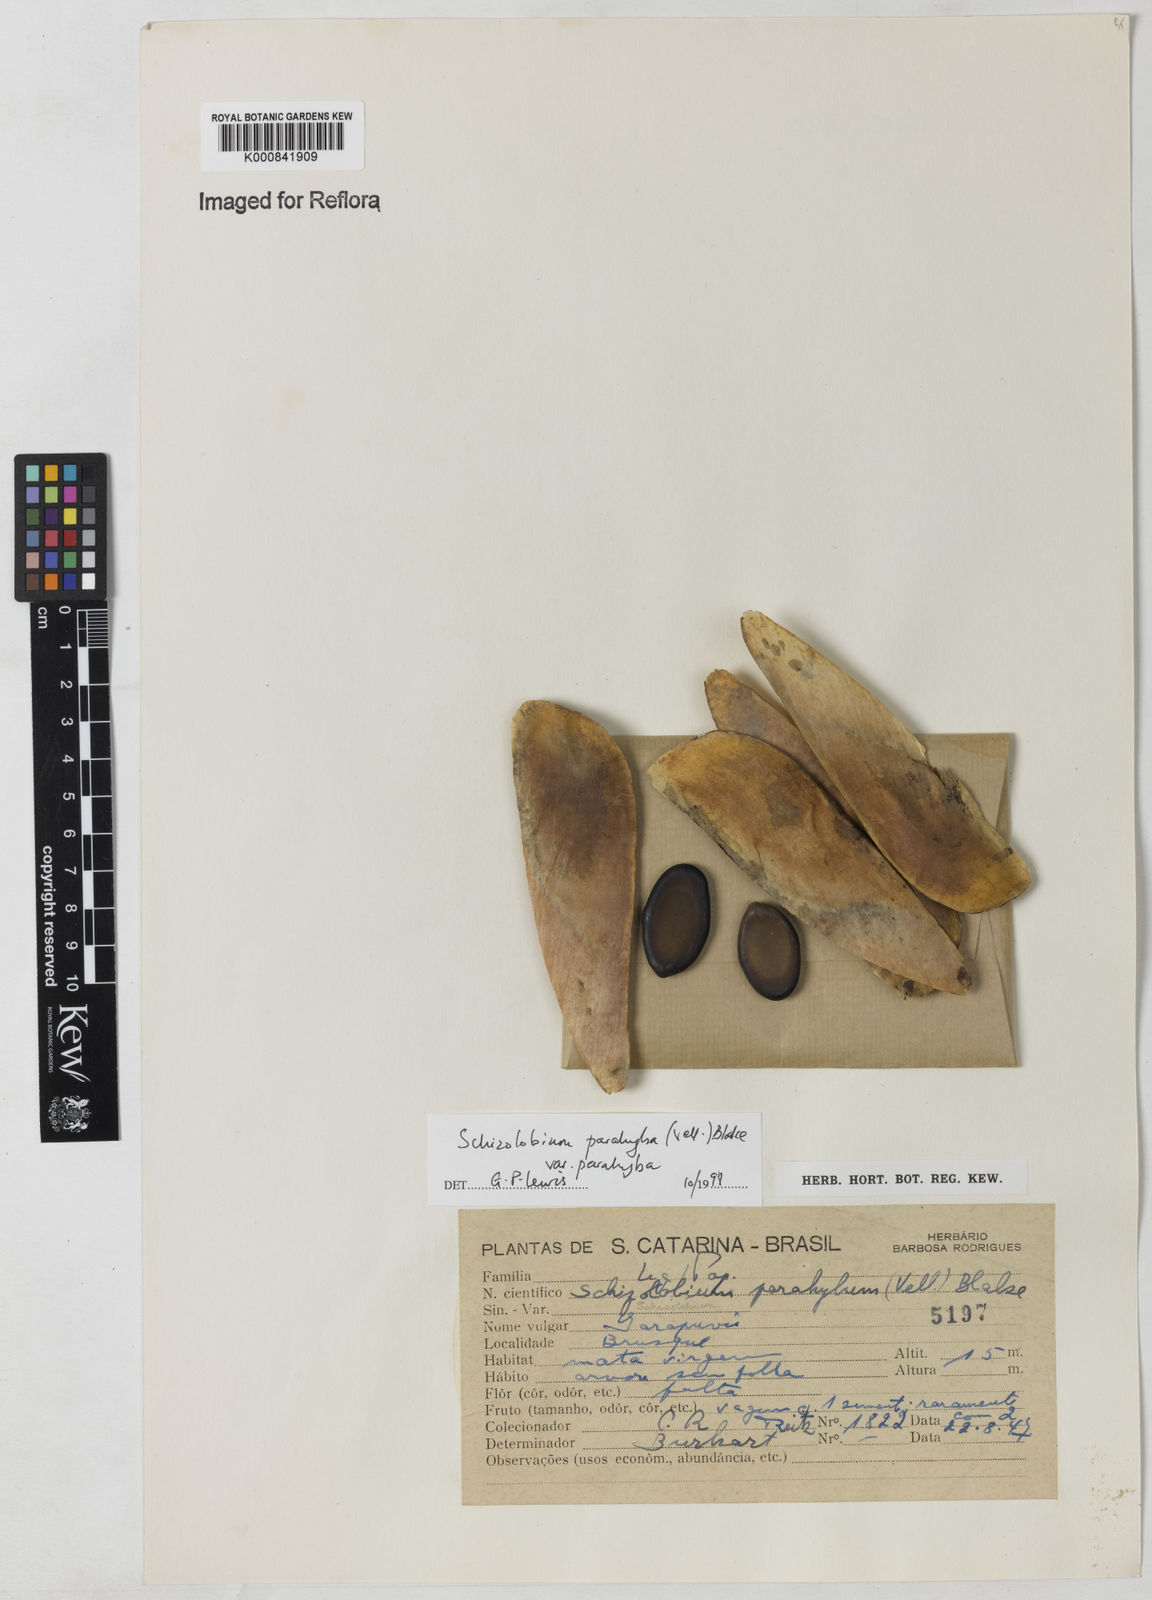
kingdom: Plantae
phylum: Tracheophyta
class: Magnoliopsida
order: Fabales
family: Fabaceae
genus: Schizolobium
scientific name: Schizolobium parahyba
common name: Brazilian firetree
